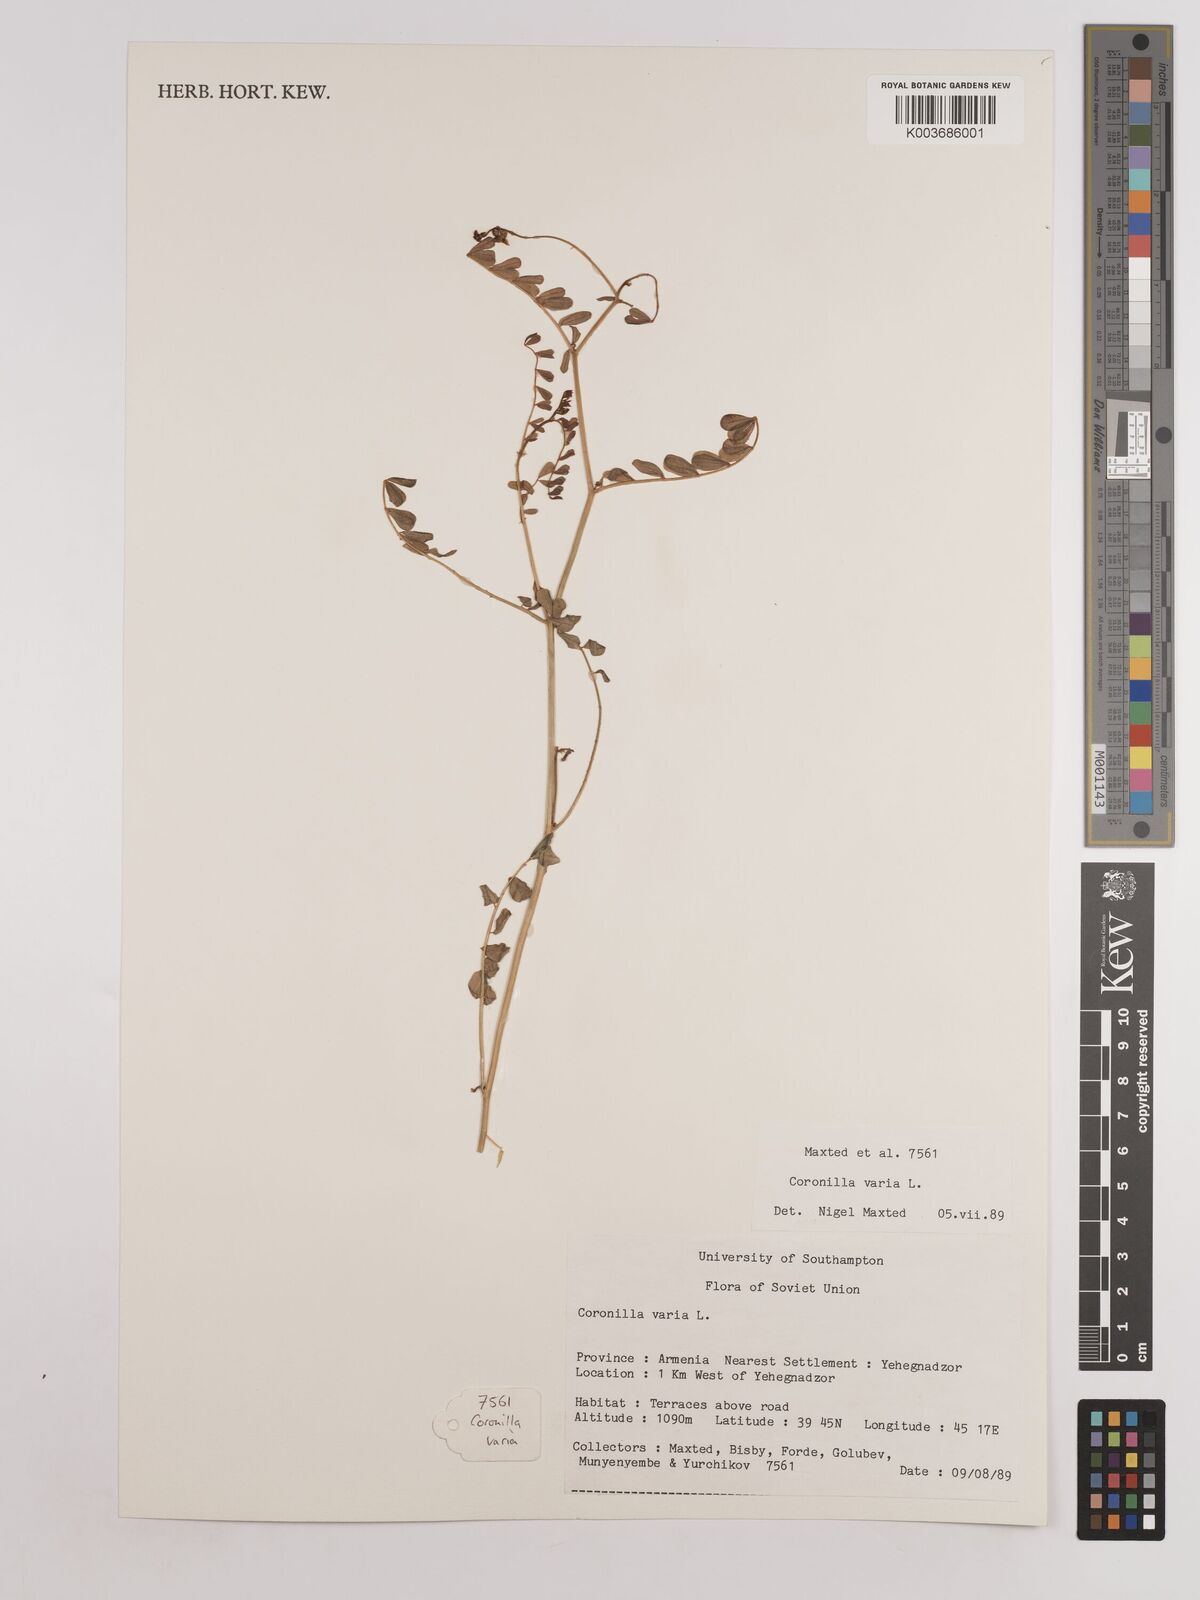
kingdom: Plantae
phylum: Tracheophyta
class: Magnoliopsida
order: Fabales
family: Fabaceae
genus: Coronilla
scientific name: Coronilla varia
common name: Crownvetch
